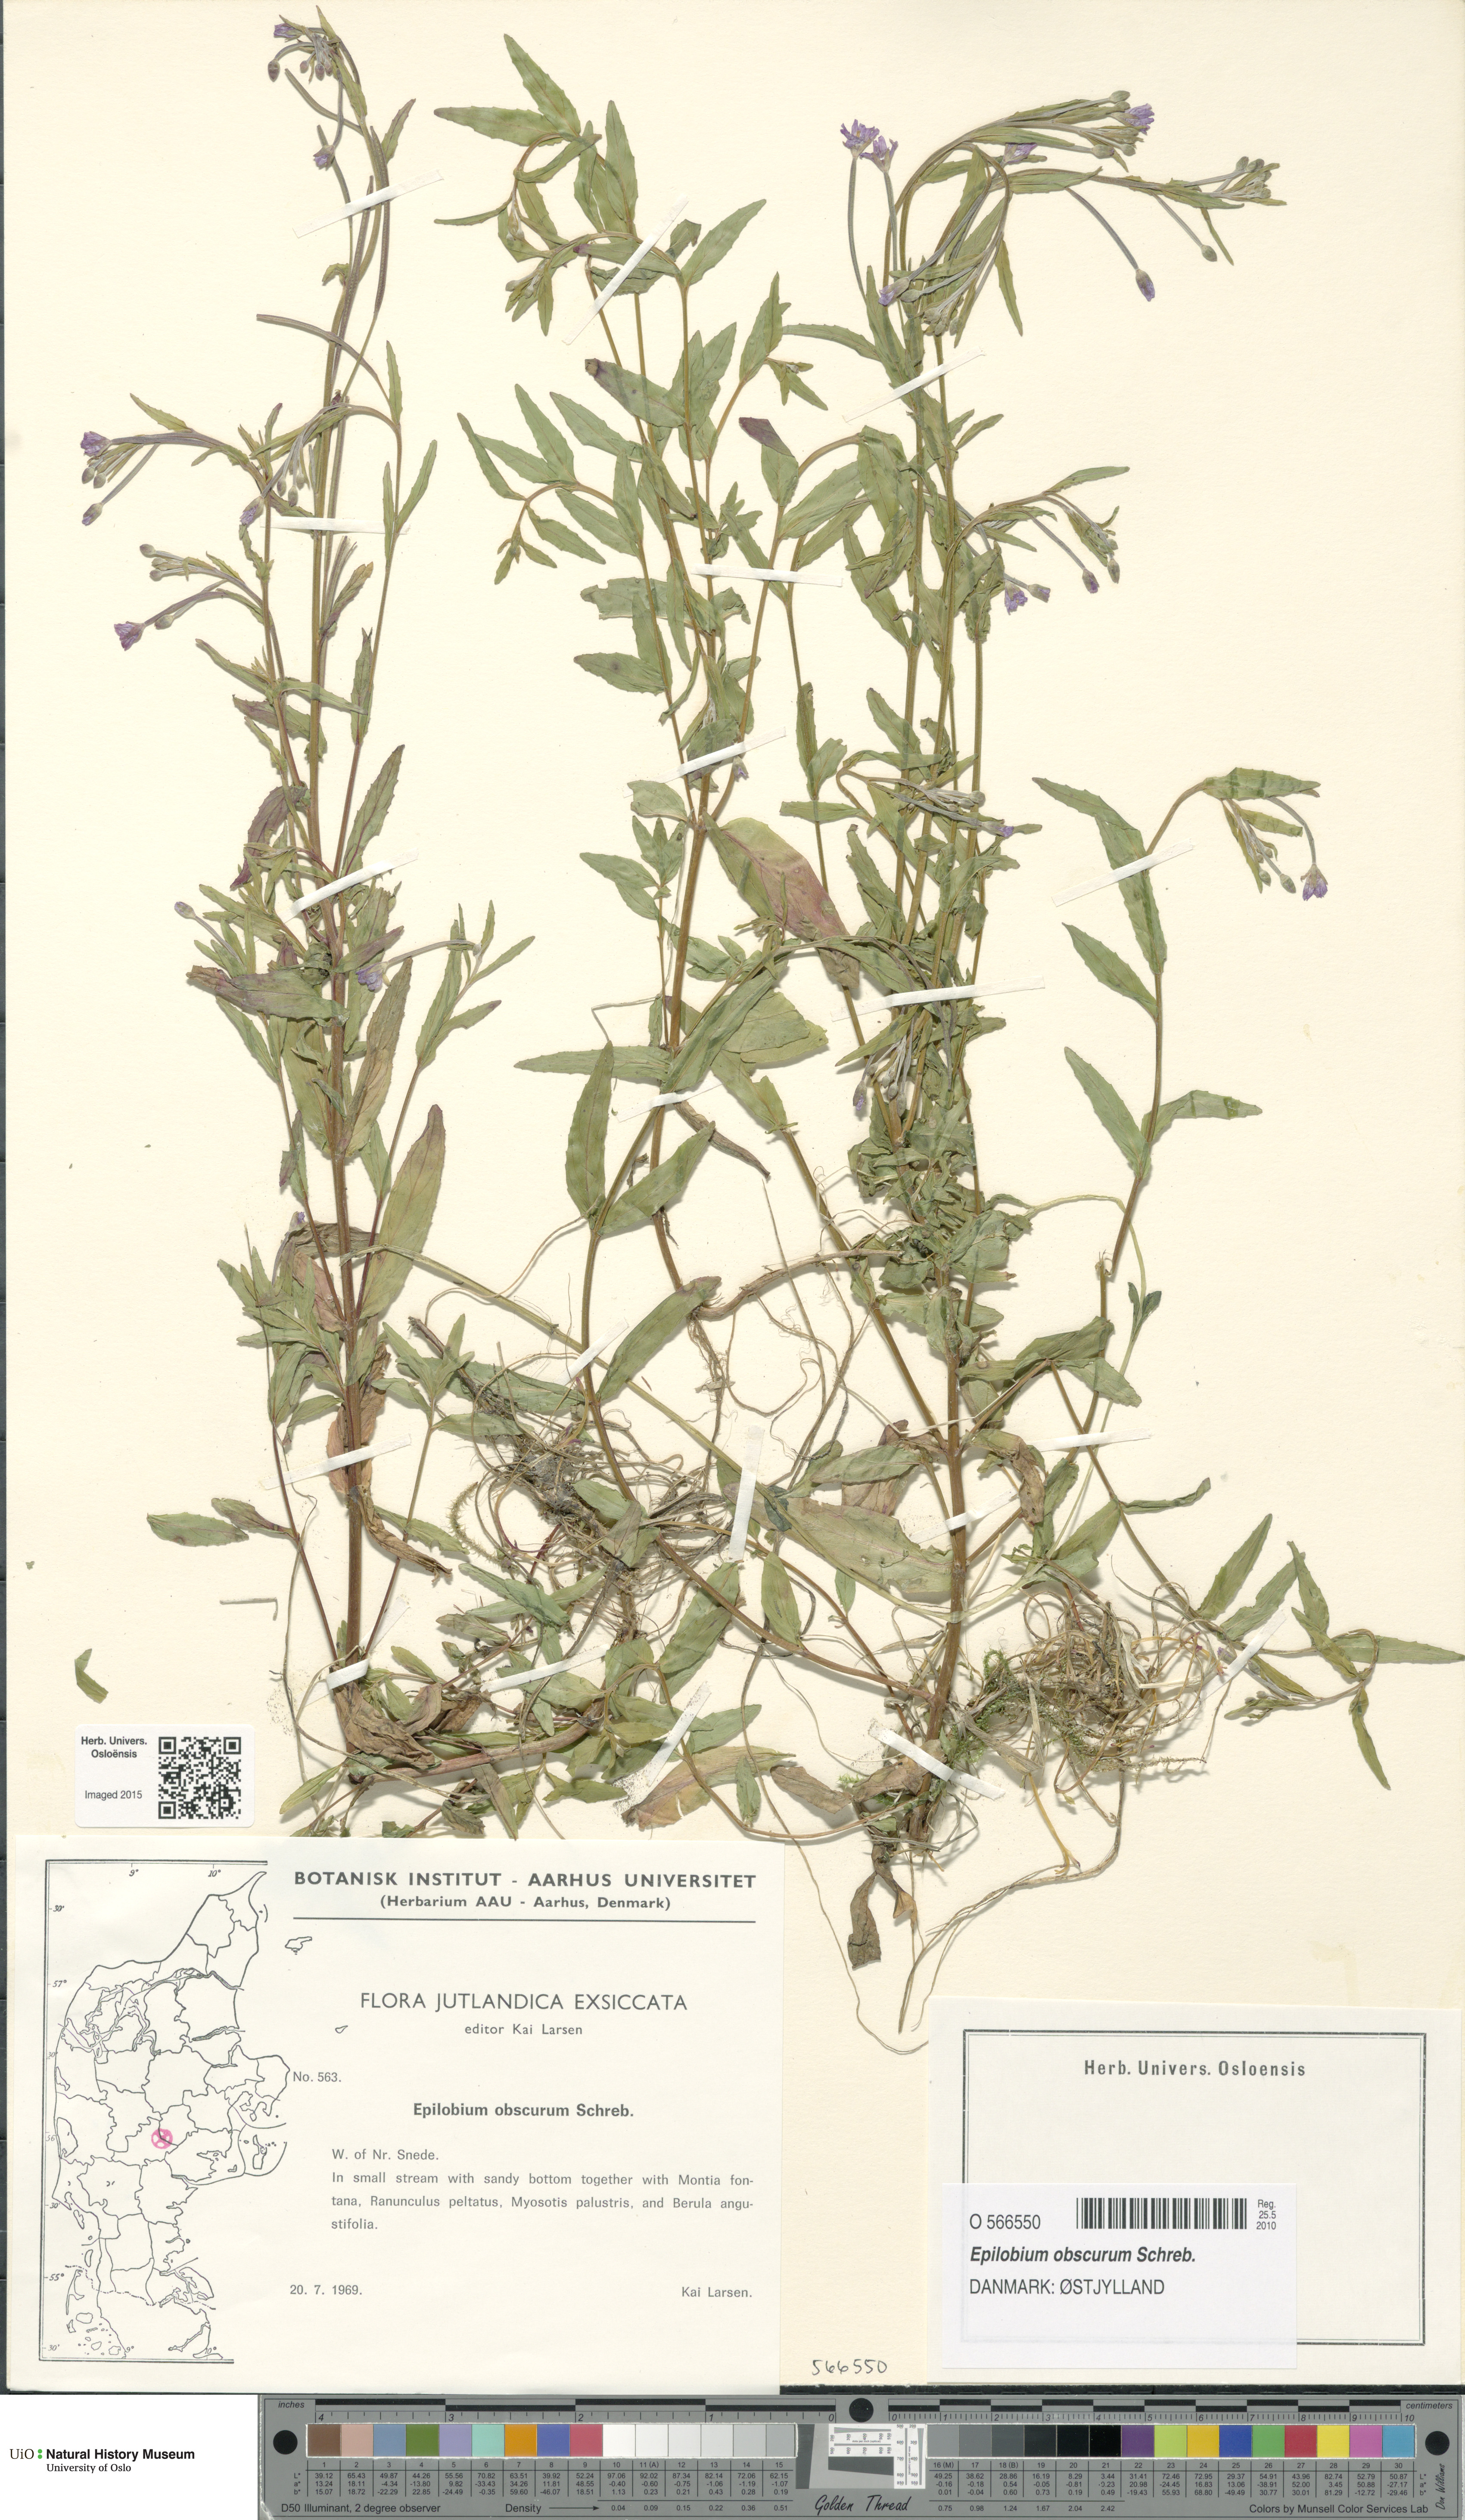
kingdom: Plantae
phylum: Tracheophyta
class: Magnoliopsida
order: Myrtales
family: Onagraceae
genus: Epilobium
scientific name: Epilobium obscurum
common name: Short-fruited willowherb
